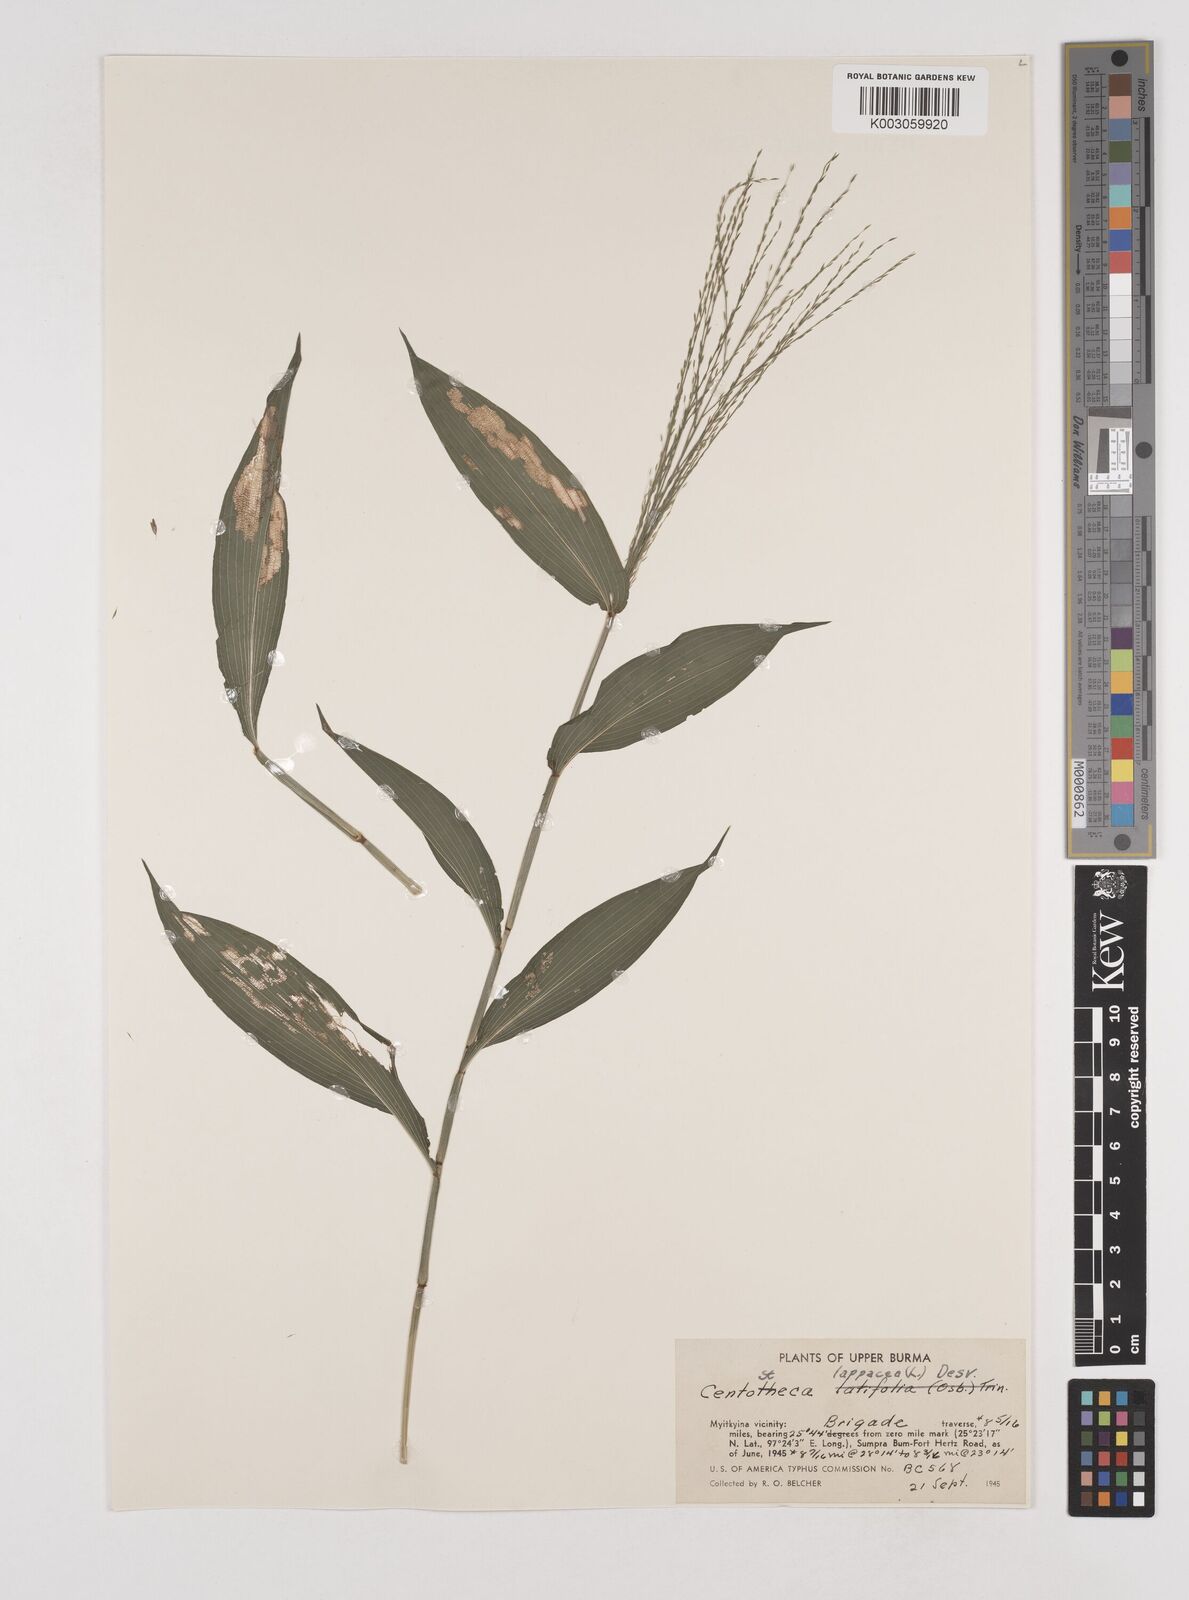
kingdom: Plantae
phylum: Tracheophyta
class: Liliopsida
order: Poales
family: Poaceae
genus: Centotheca
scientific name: Centotheca lappacea
